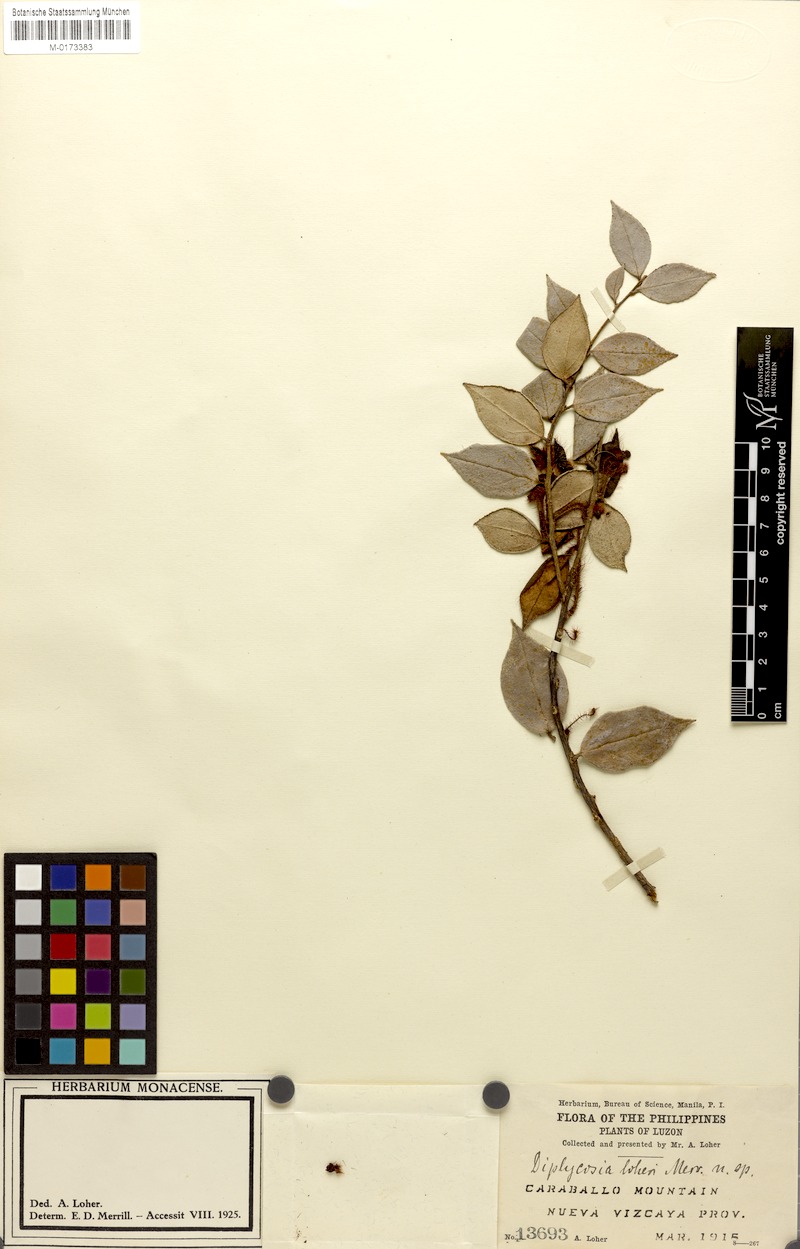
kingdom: Plantae
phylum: Tracheophyta
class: Magnoliopsida
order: Ericales
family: Ericaceae
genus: Gaultheria
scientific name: Gaultheria Diplycosia lohieri
